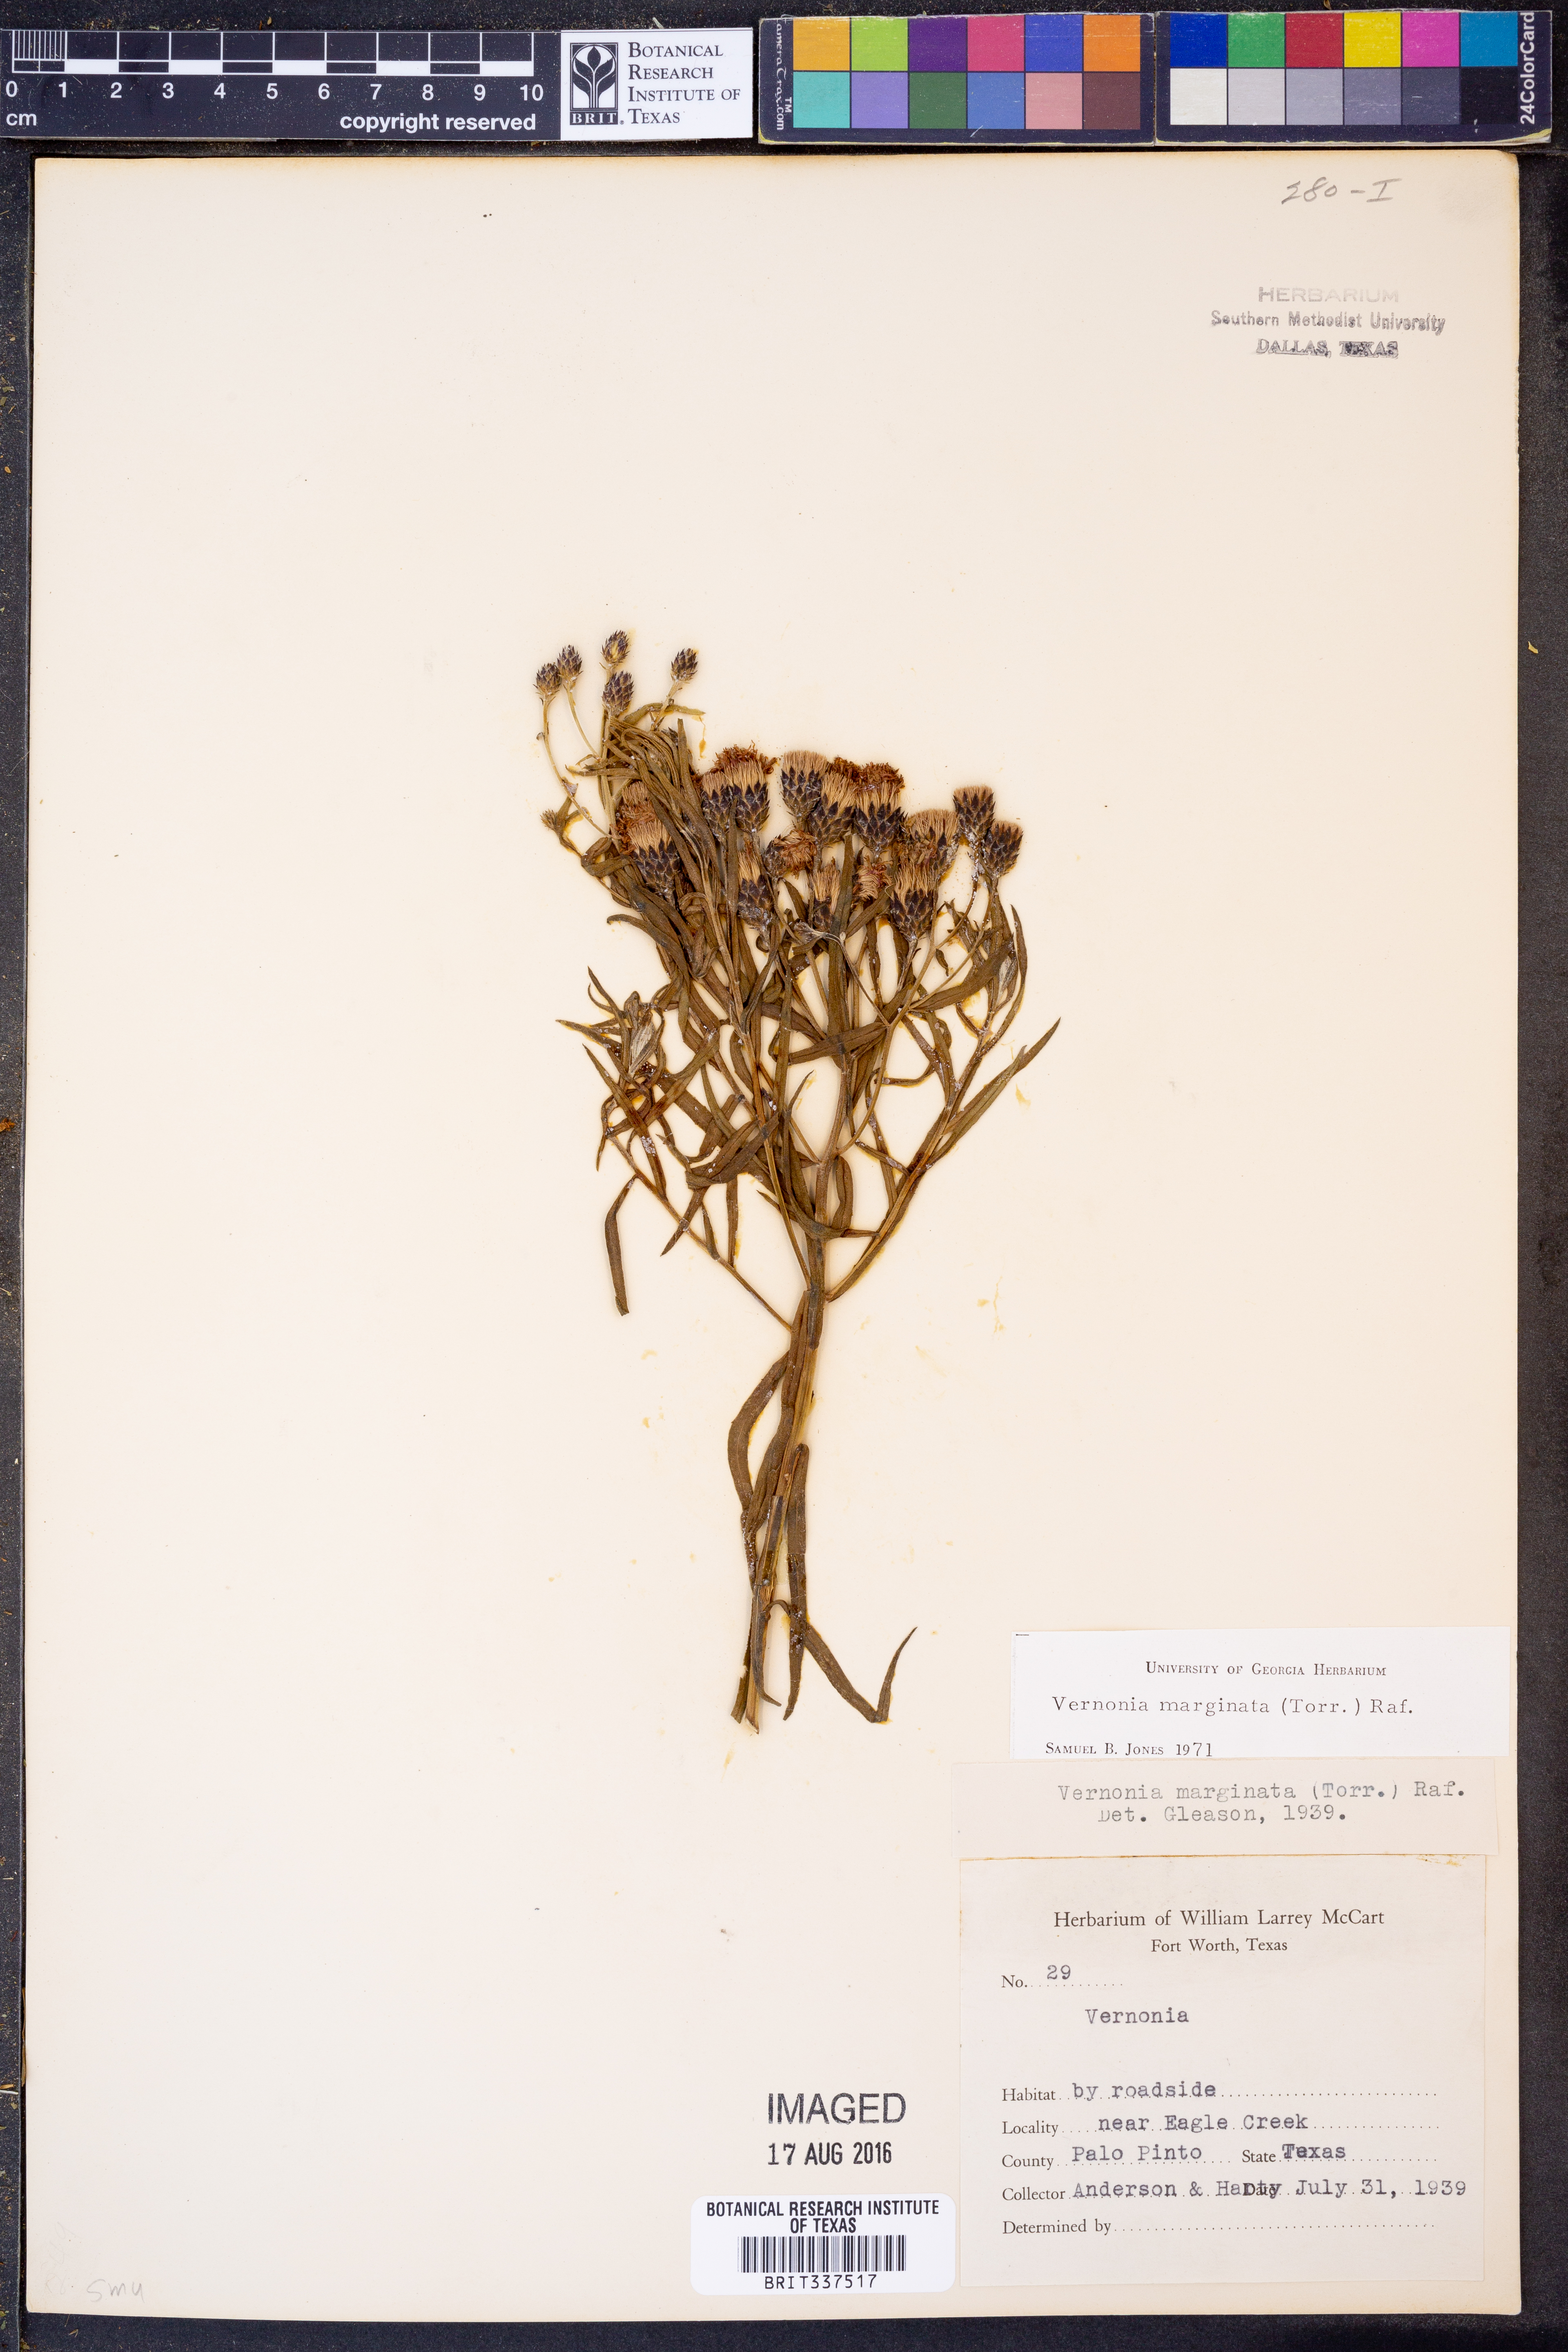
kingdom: Plantae
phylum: Tracheophyta
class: Magnoliopsida
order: Asterales
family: Asteraceae
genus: Vernonia
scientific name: Vernonia marginata
